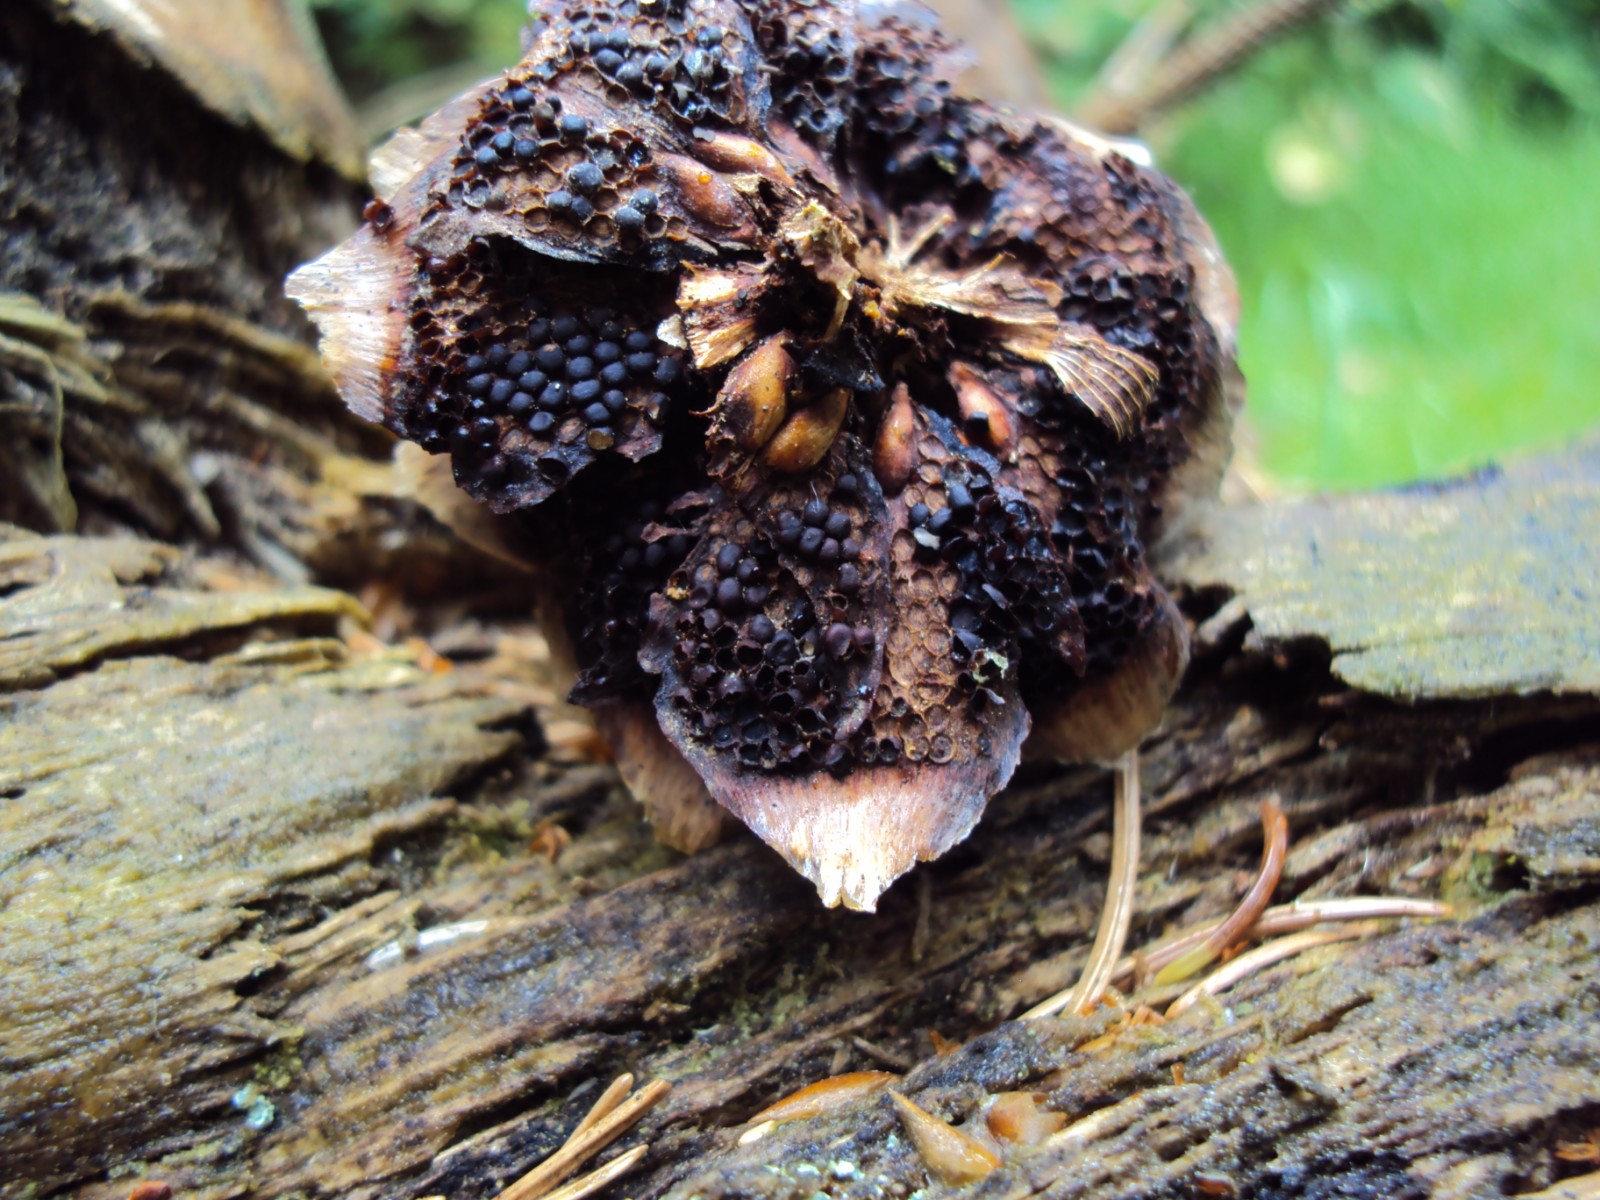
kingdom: Fungi
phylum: Basidiomycota
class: Pucciniomycetes
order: Pucciniales
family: Pucciniastraceae
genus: Thekopsora
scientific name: Thekopsora areolata
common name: grankogle-nålerust
